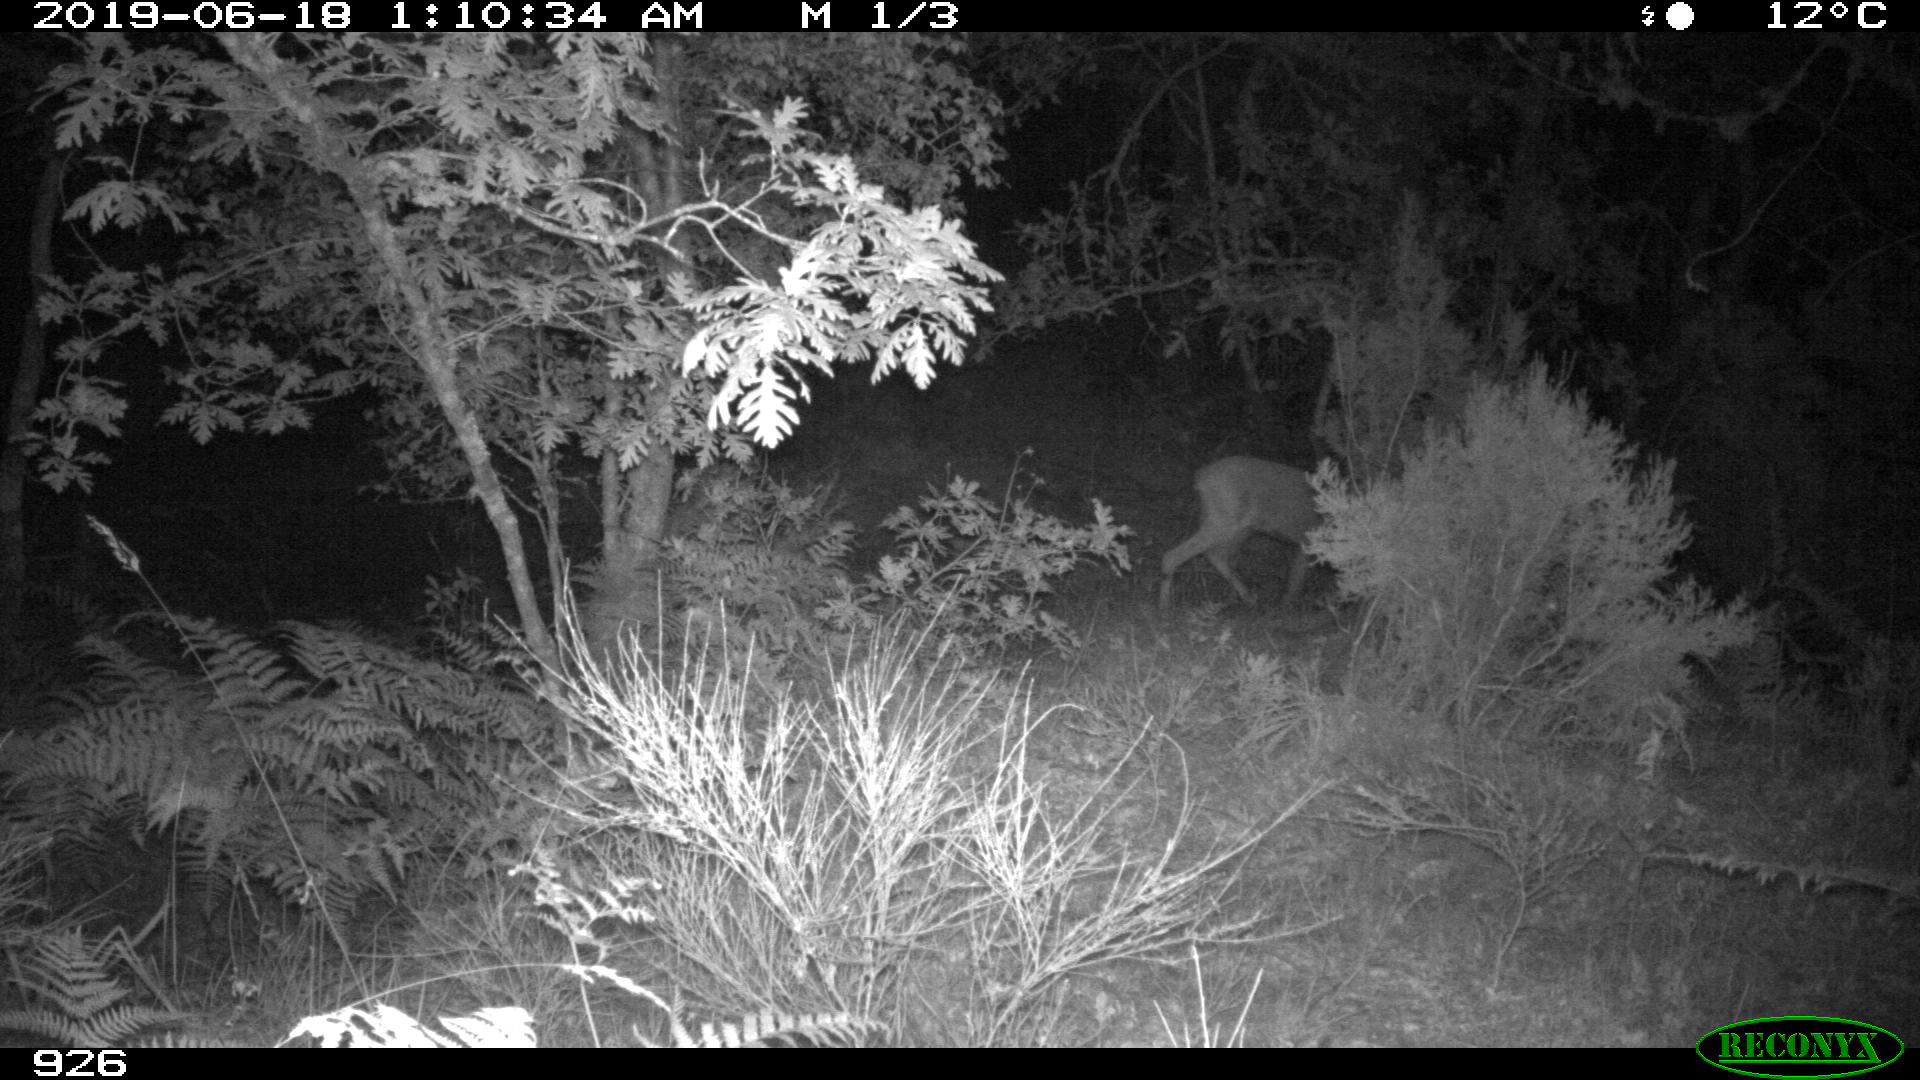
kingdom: Animalia
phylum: Chordata
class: Mammalia
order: Artiodactyla
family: Cervidae
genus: Capreolus
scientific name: Capreolus capreolus
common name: Western roe deer
